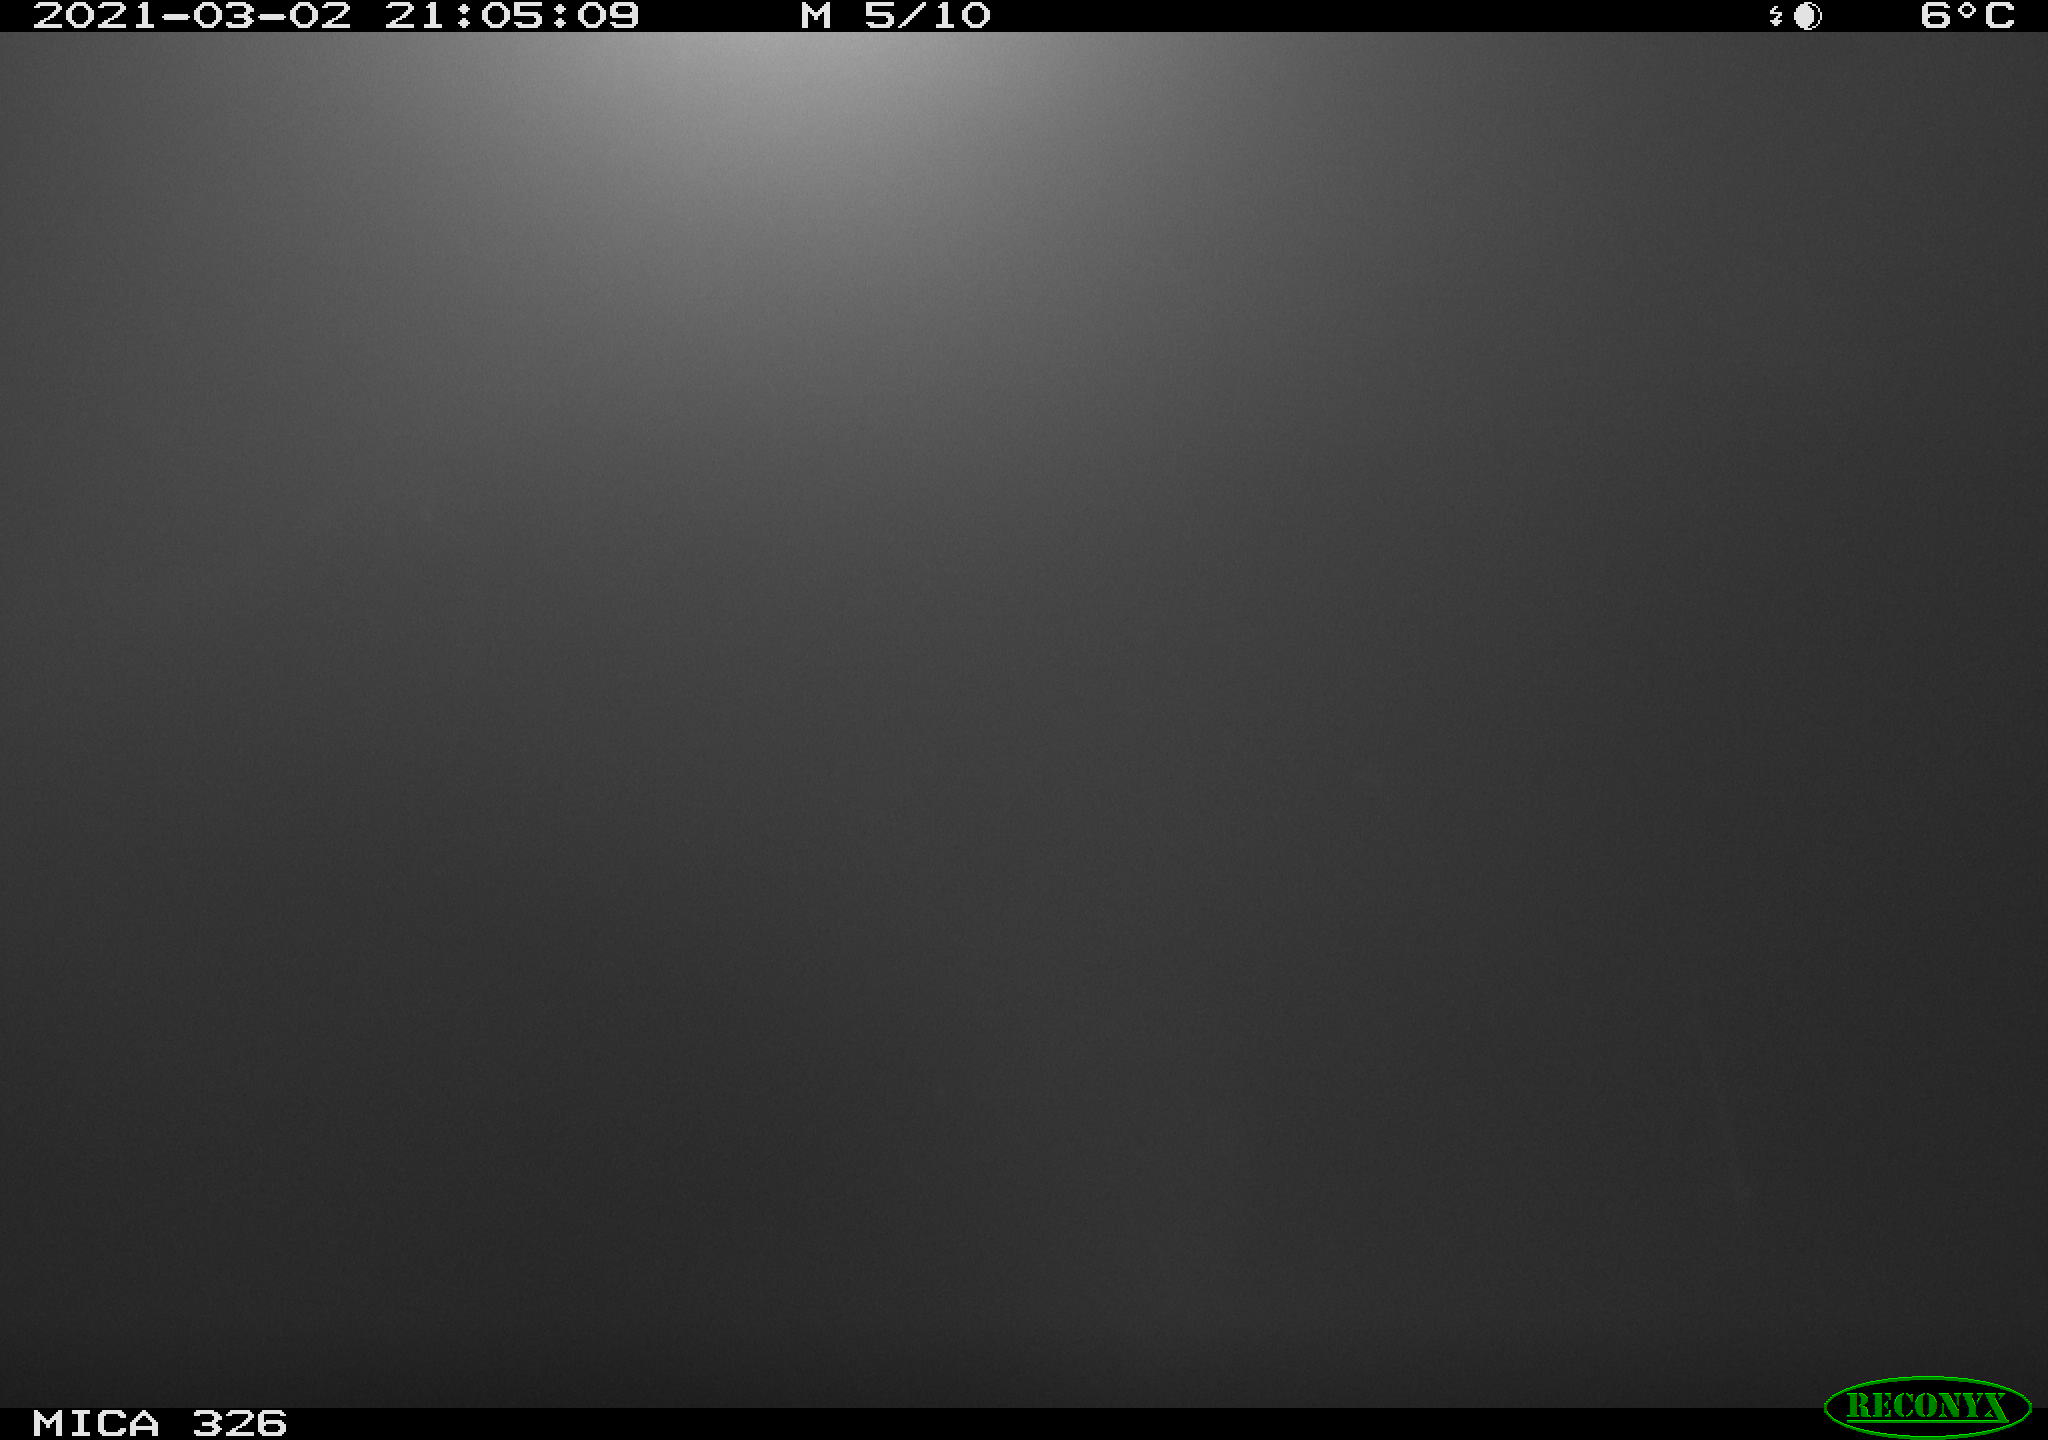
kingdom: Animalia
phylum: Chordata
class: Mammalia
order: Rodentia
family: Cricetidae
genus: Ondatra
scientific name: Ondatra zibethicus
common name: Muskrat
